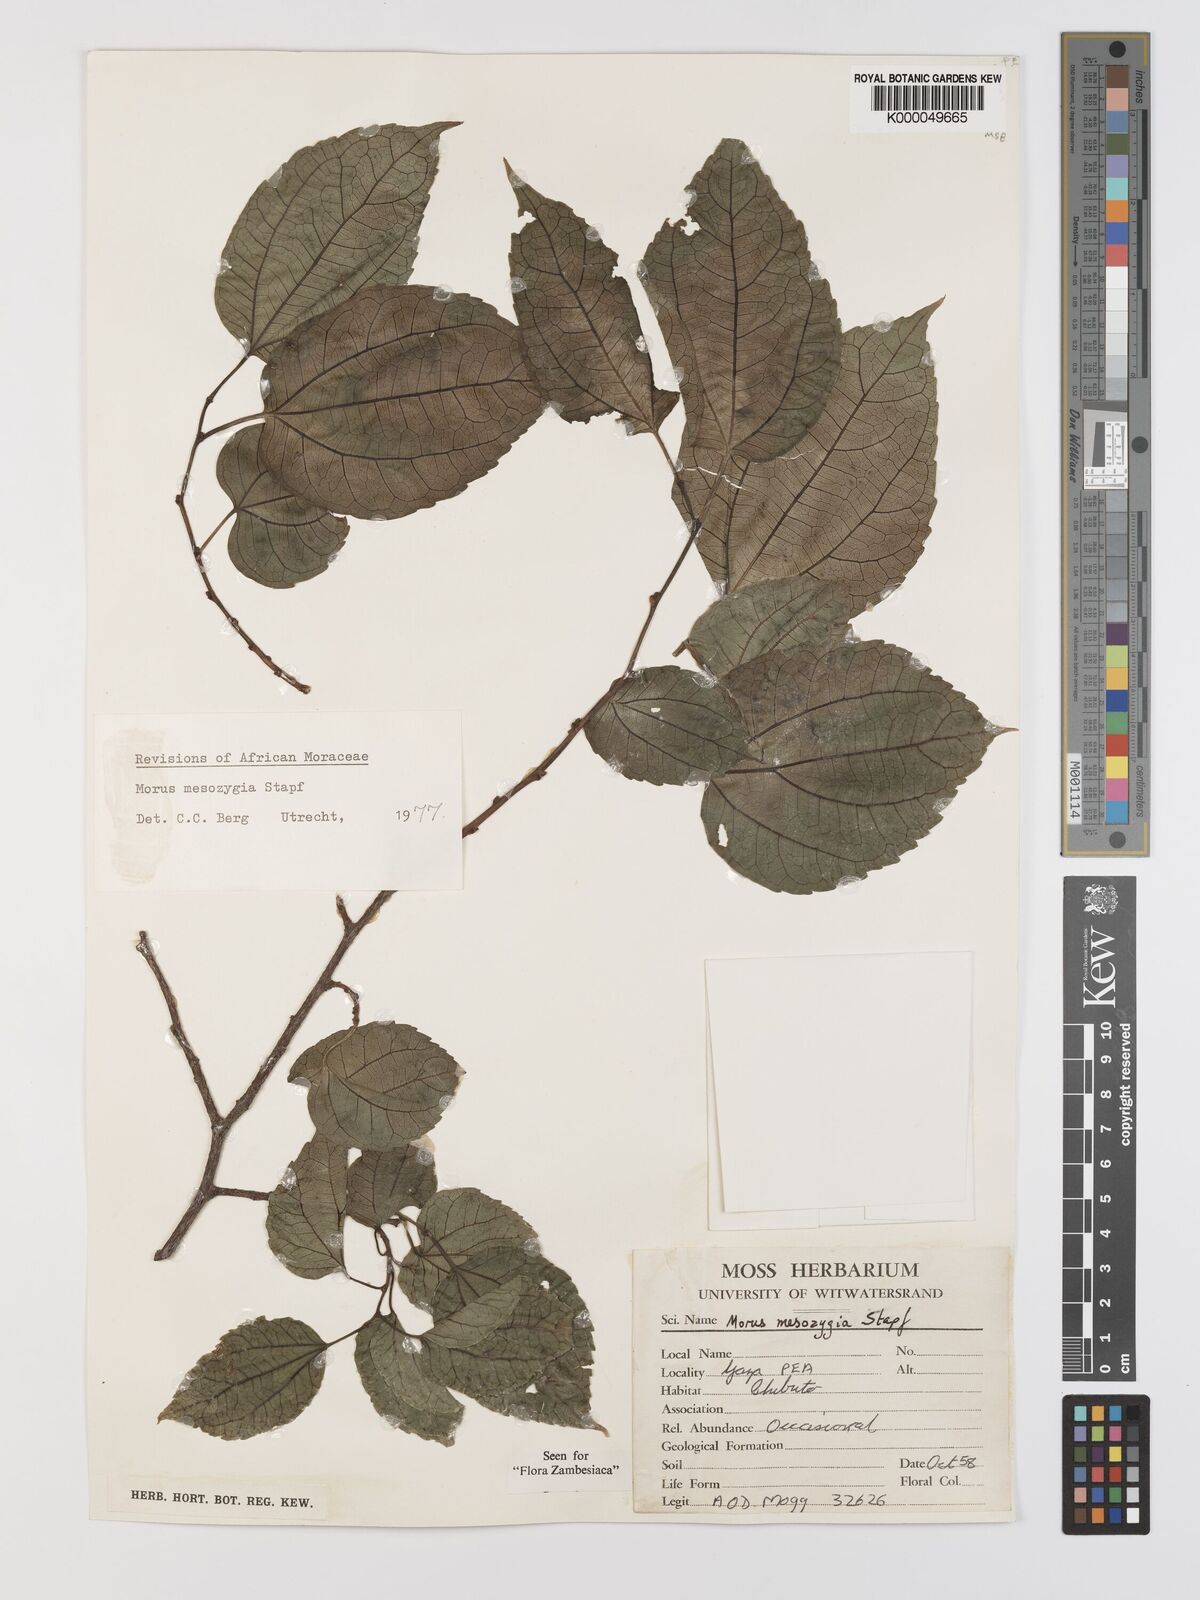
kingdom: Plantae
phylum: Tracheophyta
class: Magnoliopsida
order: Rosales
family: Moraceae
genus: Afromorus
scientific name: Afromorus mesozygia
